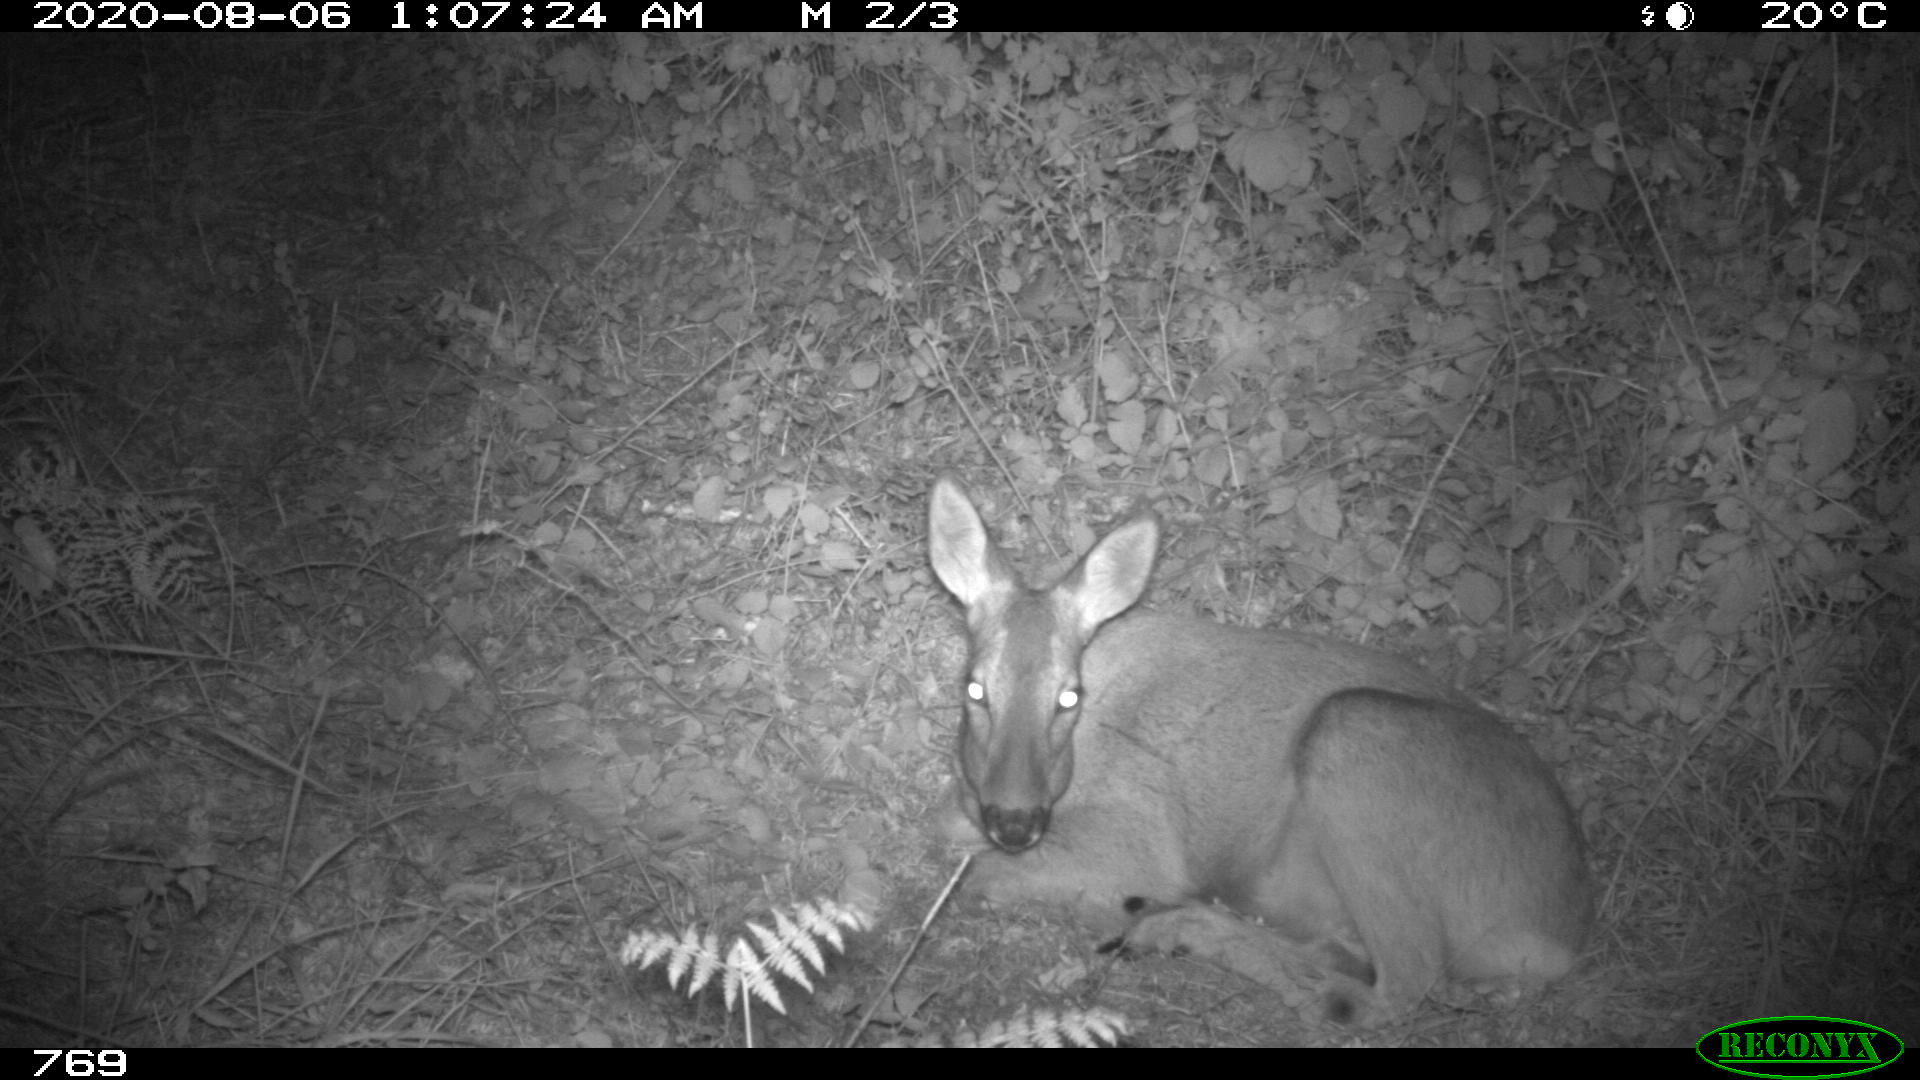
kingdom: Animalia
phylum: Chordata
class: Mammalia
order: Artiodactyla
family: Cervidae
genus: Capreolus
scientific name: Capreolus capreolus
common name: Western roe deer
